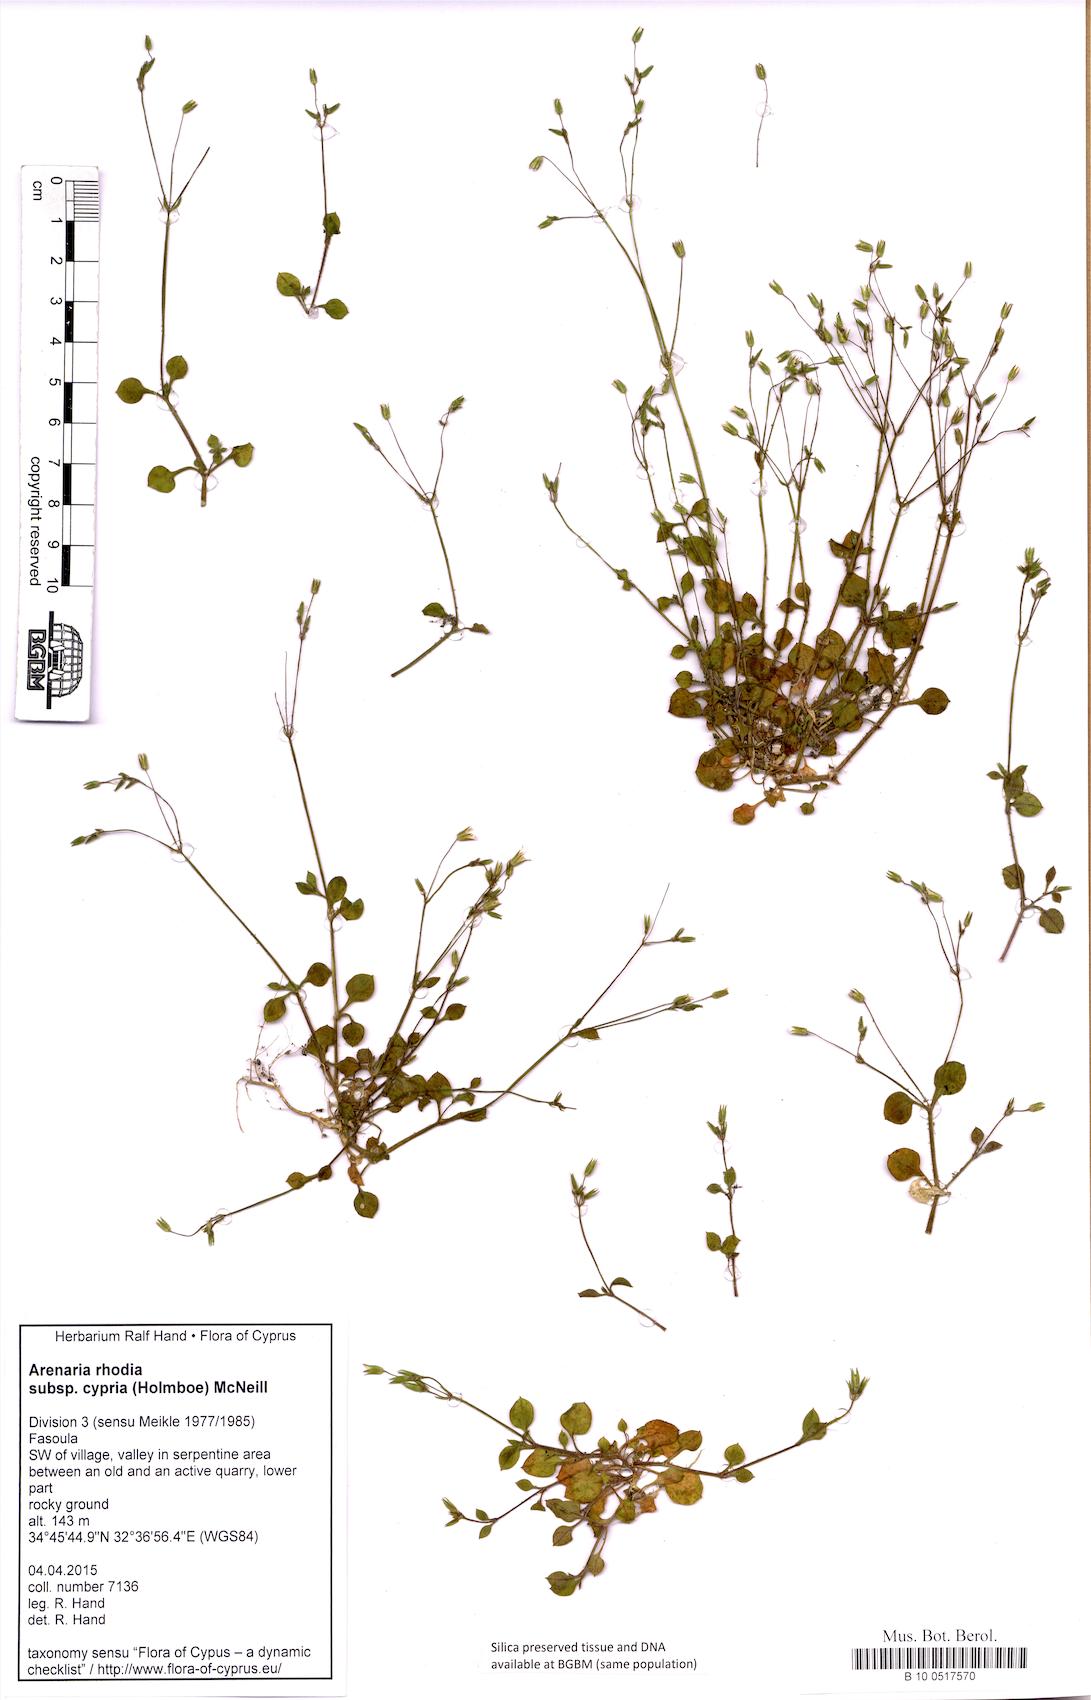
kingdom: Plantae
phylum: Tracheophyta
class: Magnoliopsida
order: Caryophyllales
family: Caryophyllaceae
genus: Arenaria
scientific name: Arenaria rhodia
